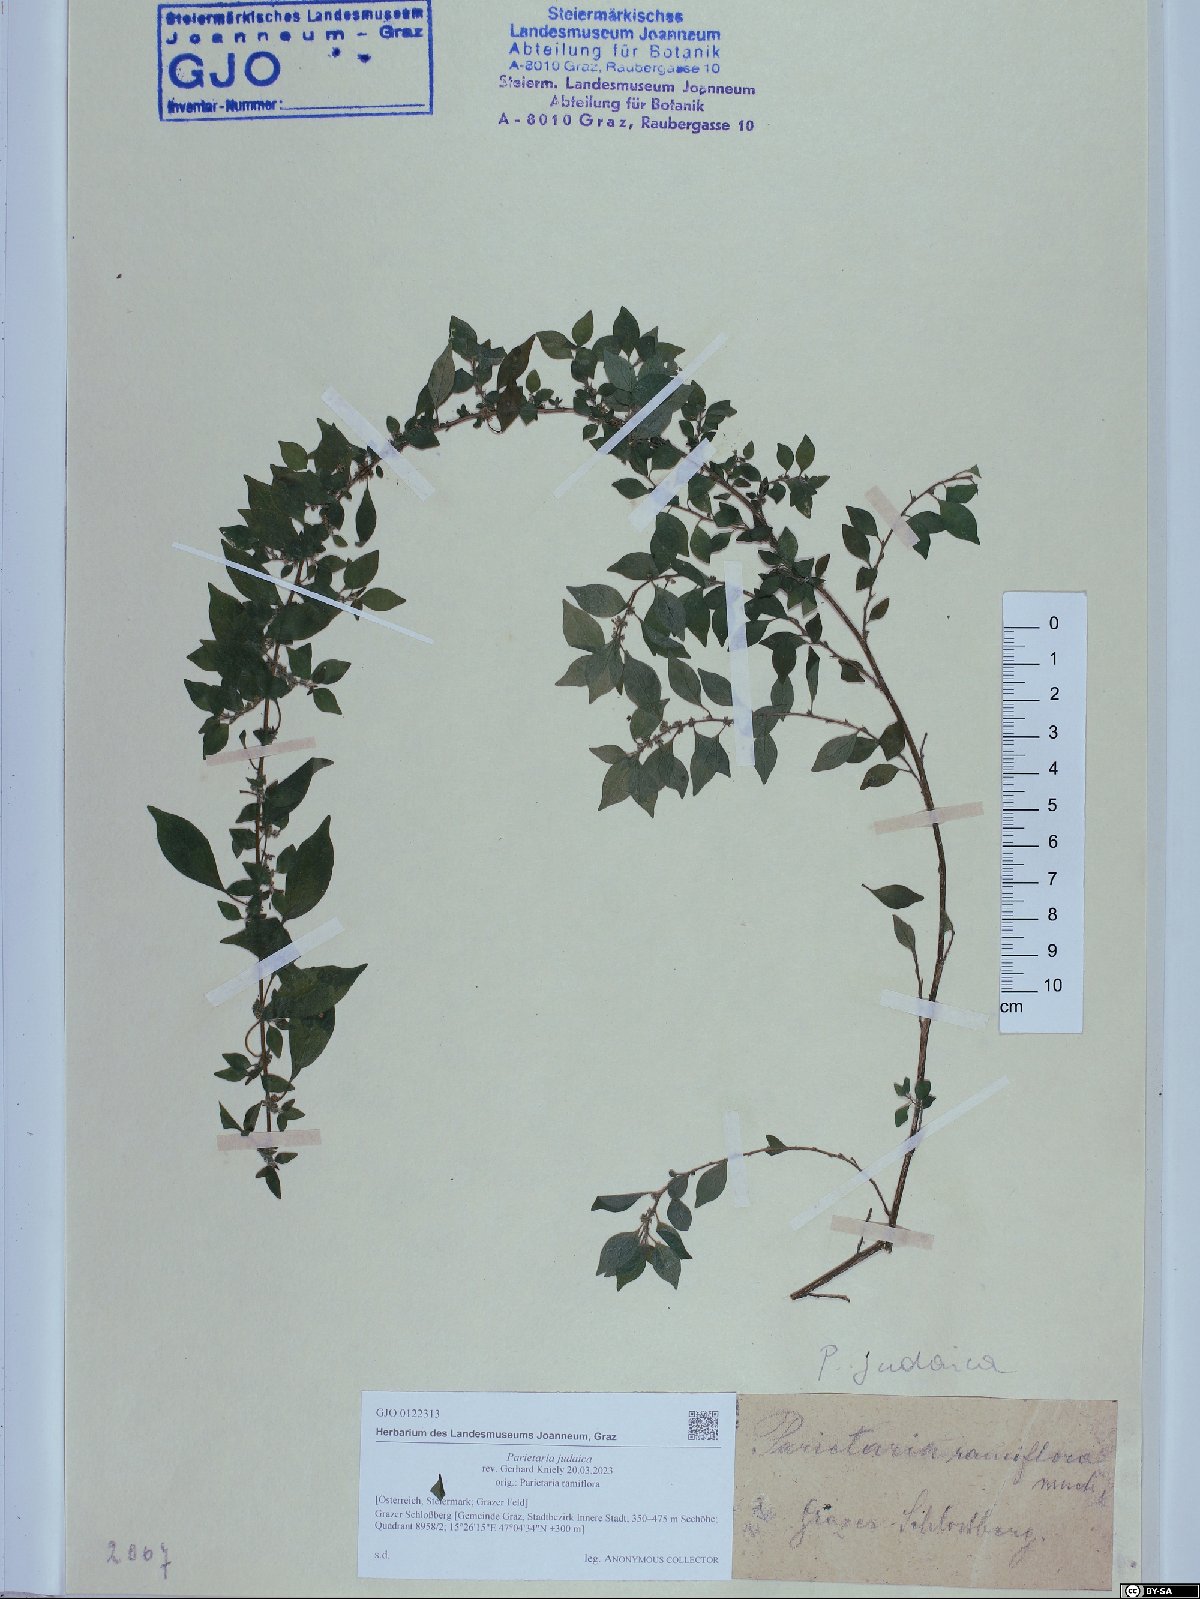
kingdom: Plantae
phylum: Tracheophyta
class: Magnoliopsida
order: Rosales
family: Urticaceae
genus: Parietaria
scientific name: Parietaria judaica
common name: Pellitory-of-the-wall
